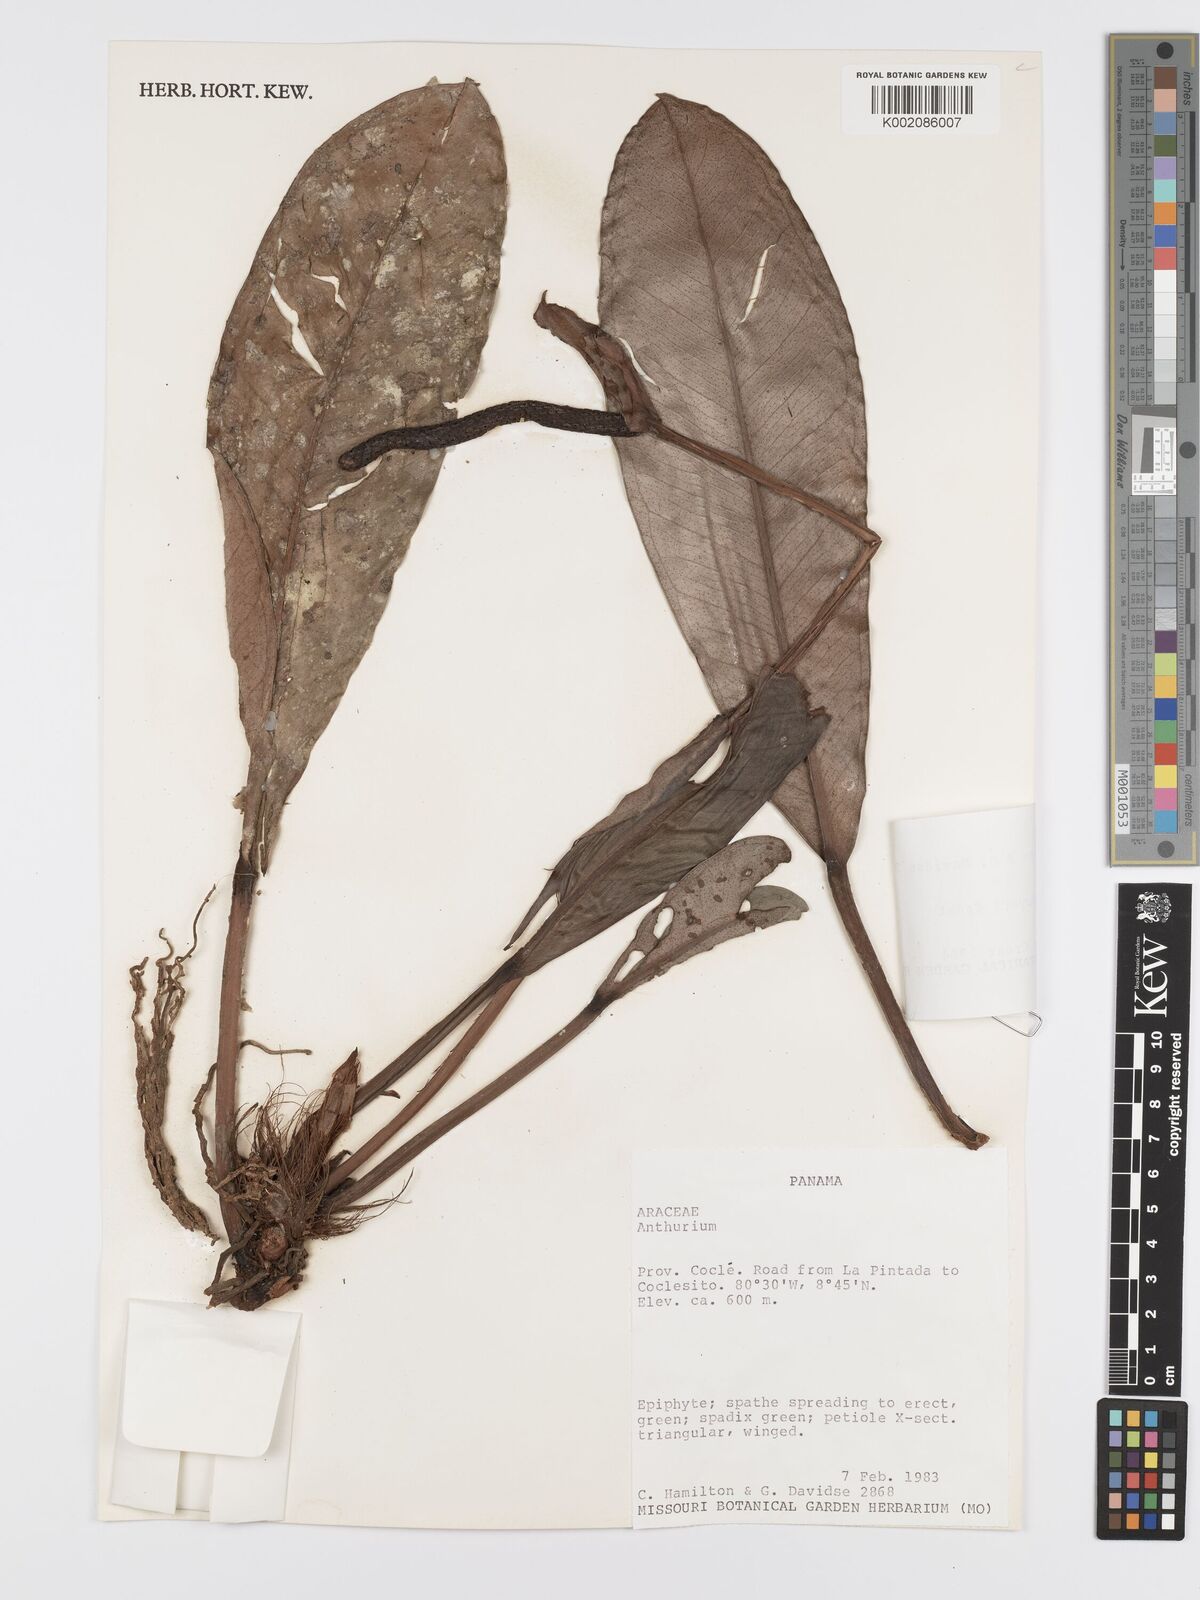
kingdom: Plantae
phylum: Tracheophyta
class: Liliopsida
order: Alismatales
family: Araceae
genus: Anthurium
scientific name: Anthurium dwyeri
